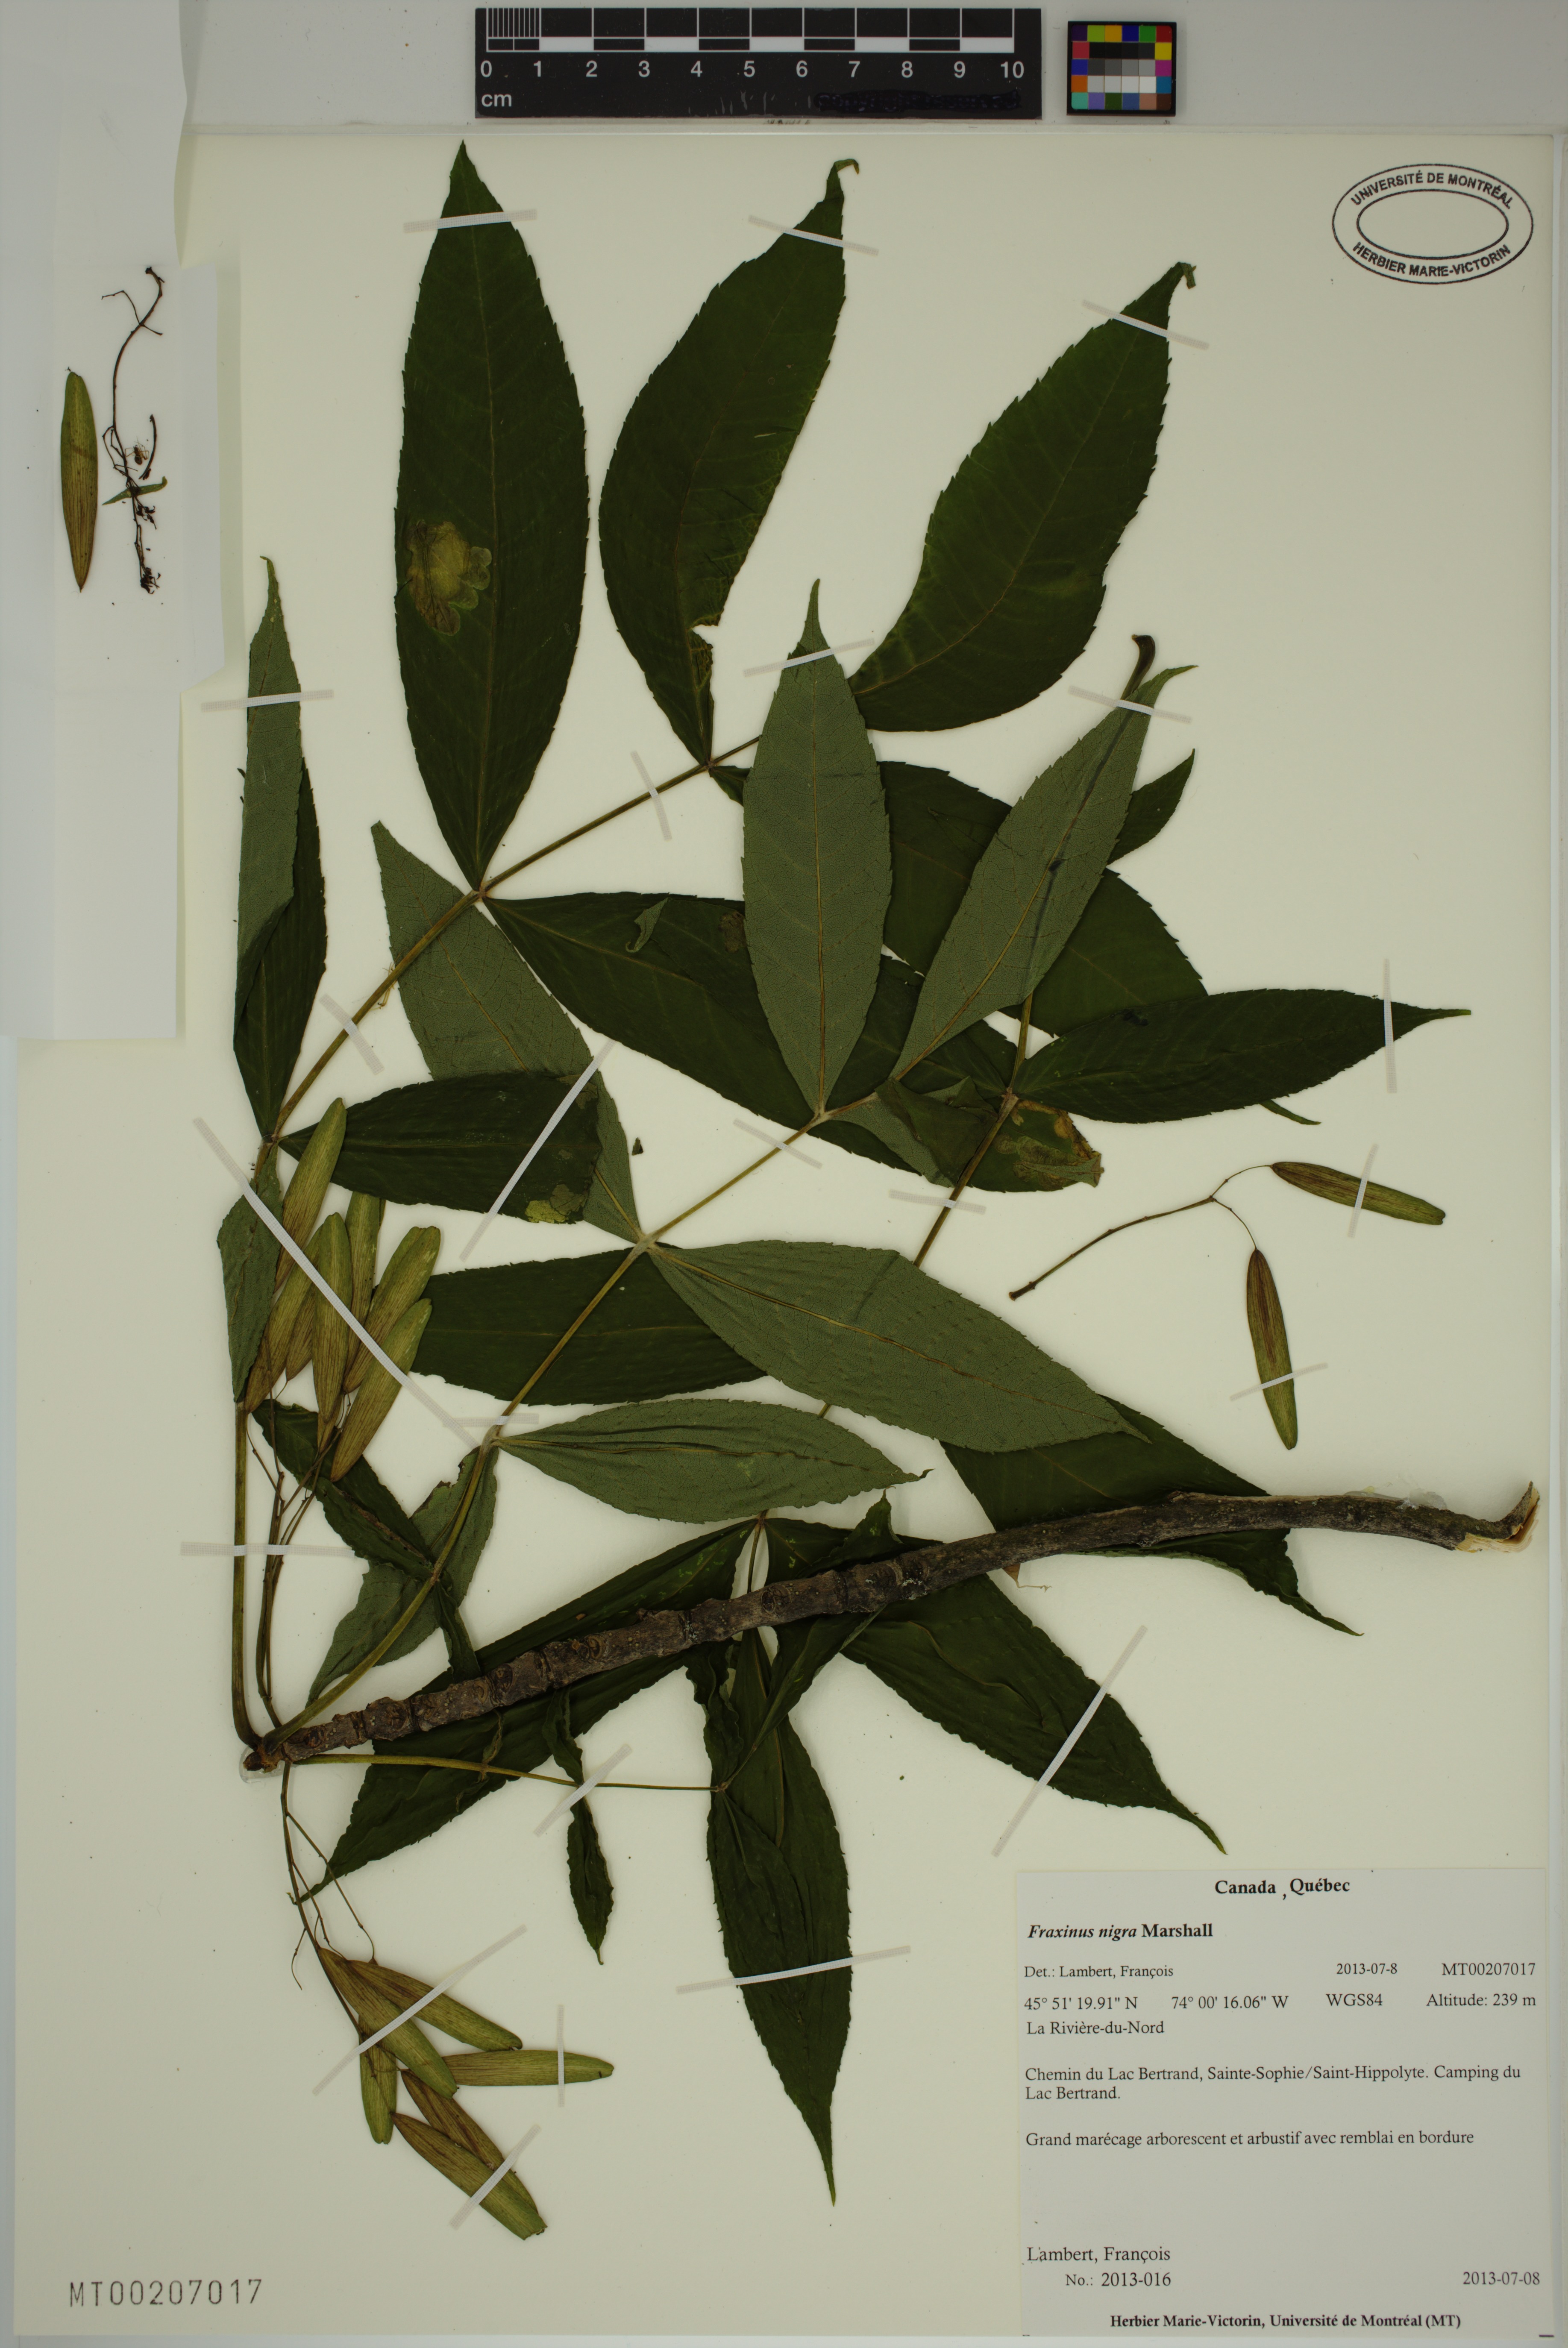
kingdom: Plantae
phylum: Tracheophyta
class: Magnoliopsida
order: Lamiales
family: Oleaceae
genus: Fraxinus
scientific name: Fraxinus nigra
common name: Black ash
